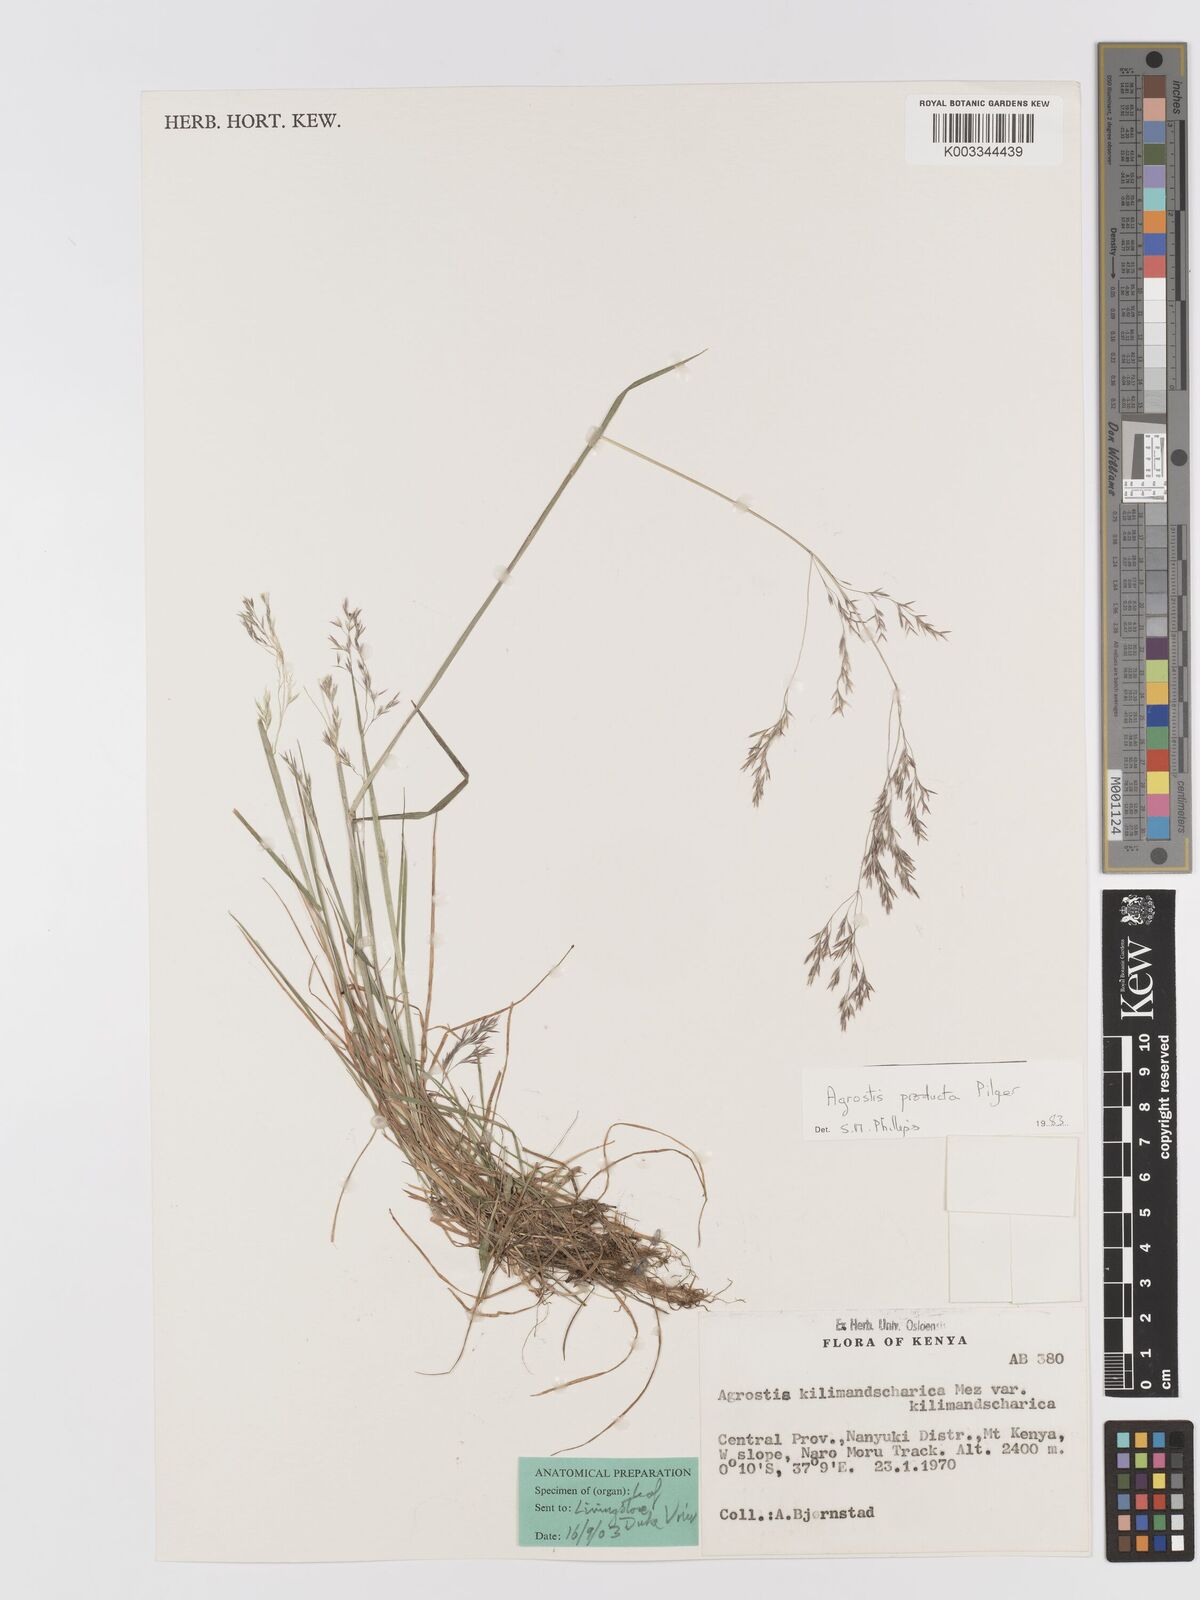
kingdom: Plantae
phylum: Tracheophyta
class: Liliopsida
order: Poales
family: Poaceae
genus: Agrostis
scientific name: Agrostis producta
